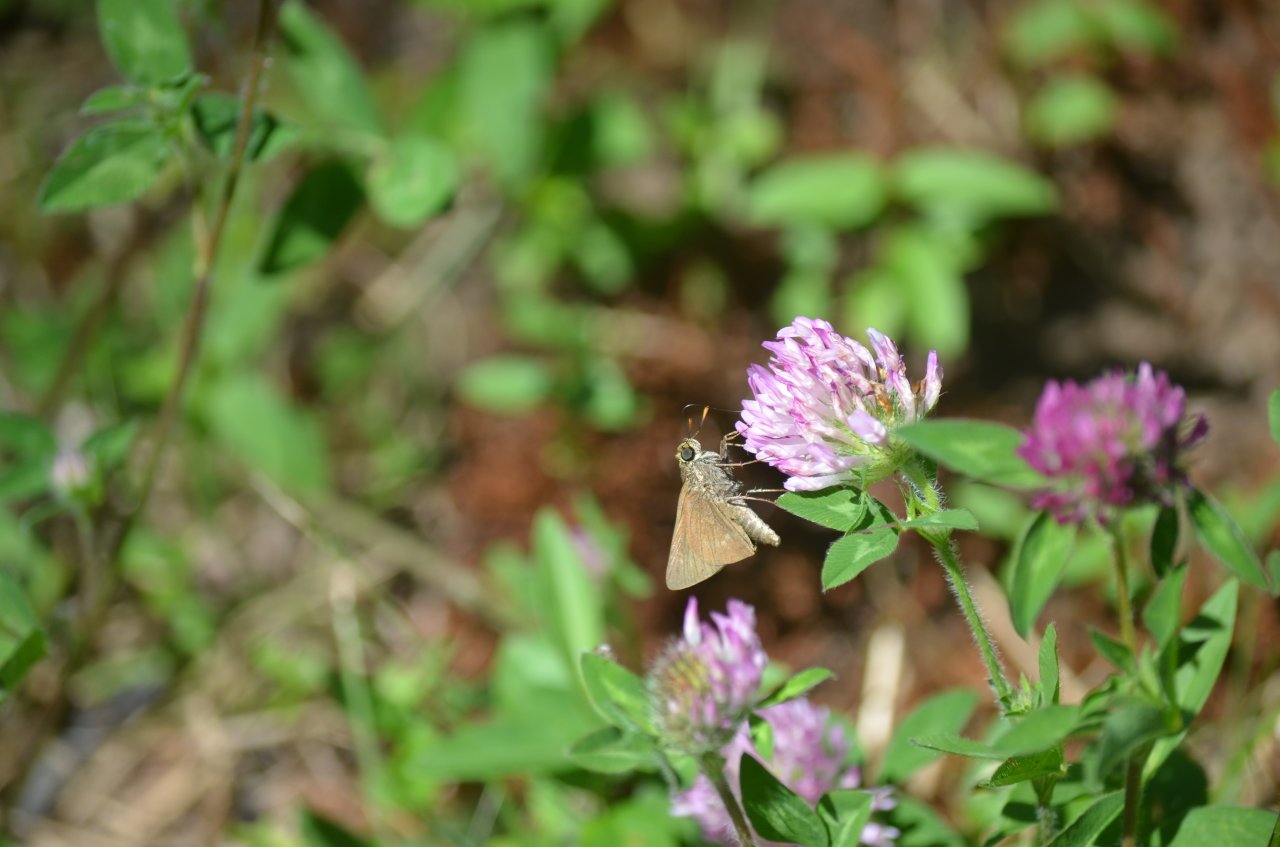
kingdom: Animalia
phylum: Arthropoda
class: Insecta
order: Lepidoptera
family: Hesperiidae
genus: Euphyes
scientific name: Euphyes vestris
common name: Dun Skipper
